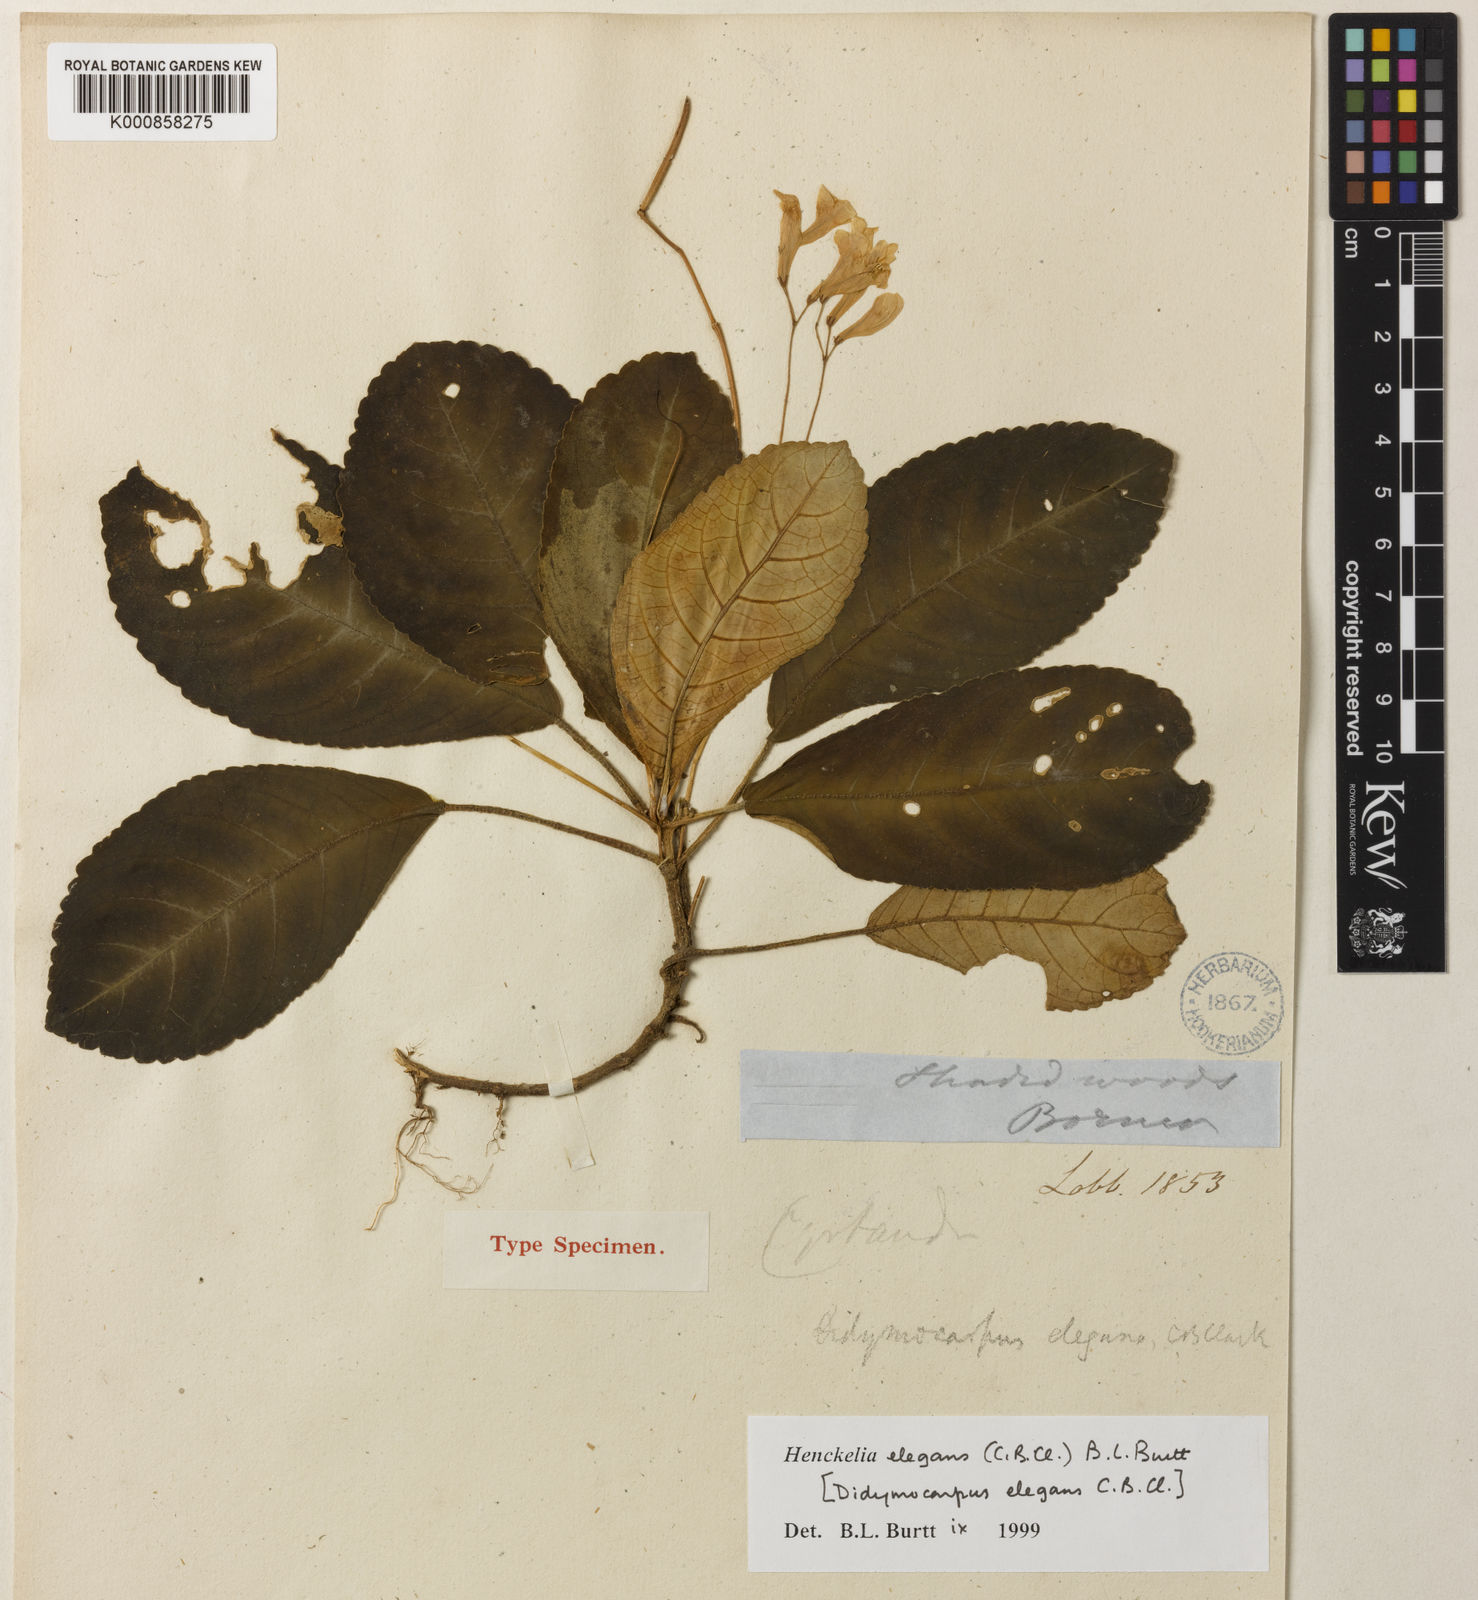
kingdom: Plantae
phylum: Tracheophyta
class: Magnoliopsida
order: Lamiales
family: Gesneriaceae
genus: Codonoboea
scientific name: Codonoboea elegans
